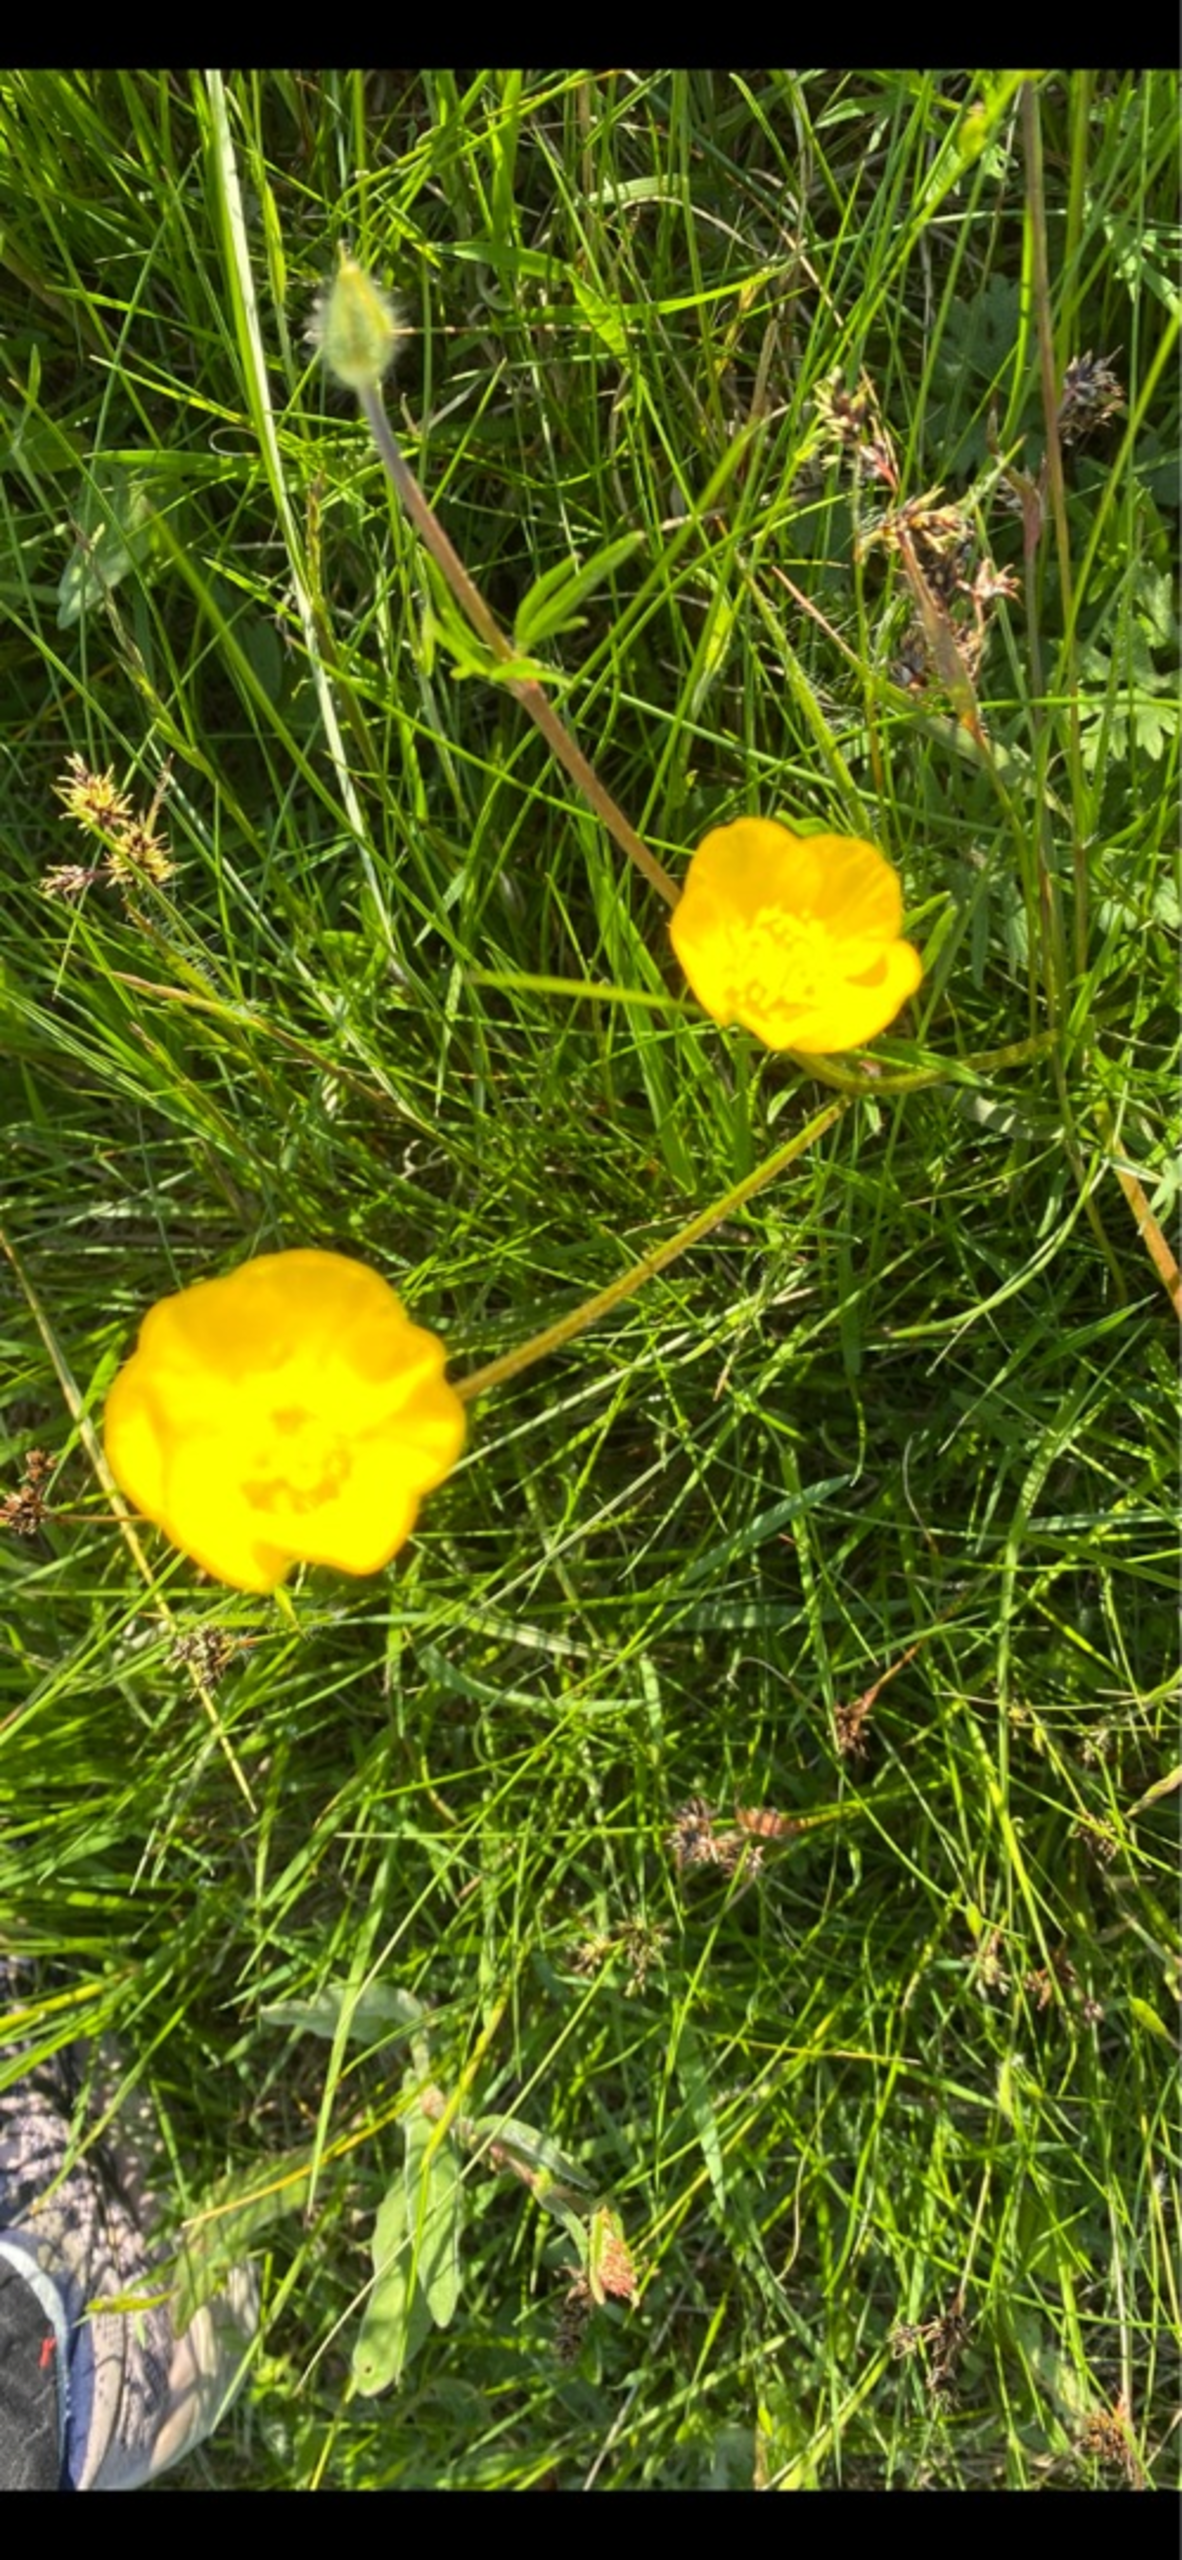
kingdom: Plantae
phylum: Tracheophyta
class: Magnoliopsida
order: Ranunculales
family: Ranunculaceae
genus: Ranunculus
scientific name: Ranunculus bulbosus
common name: Knold-ranunkel
